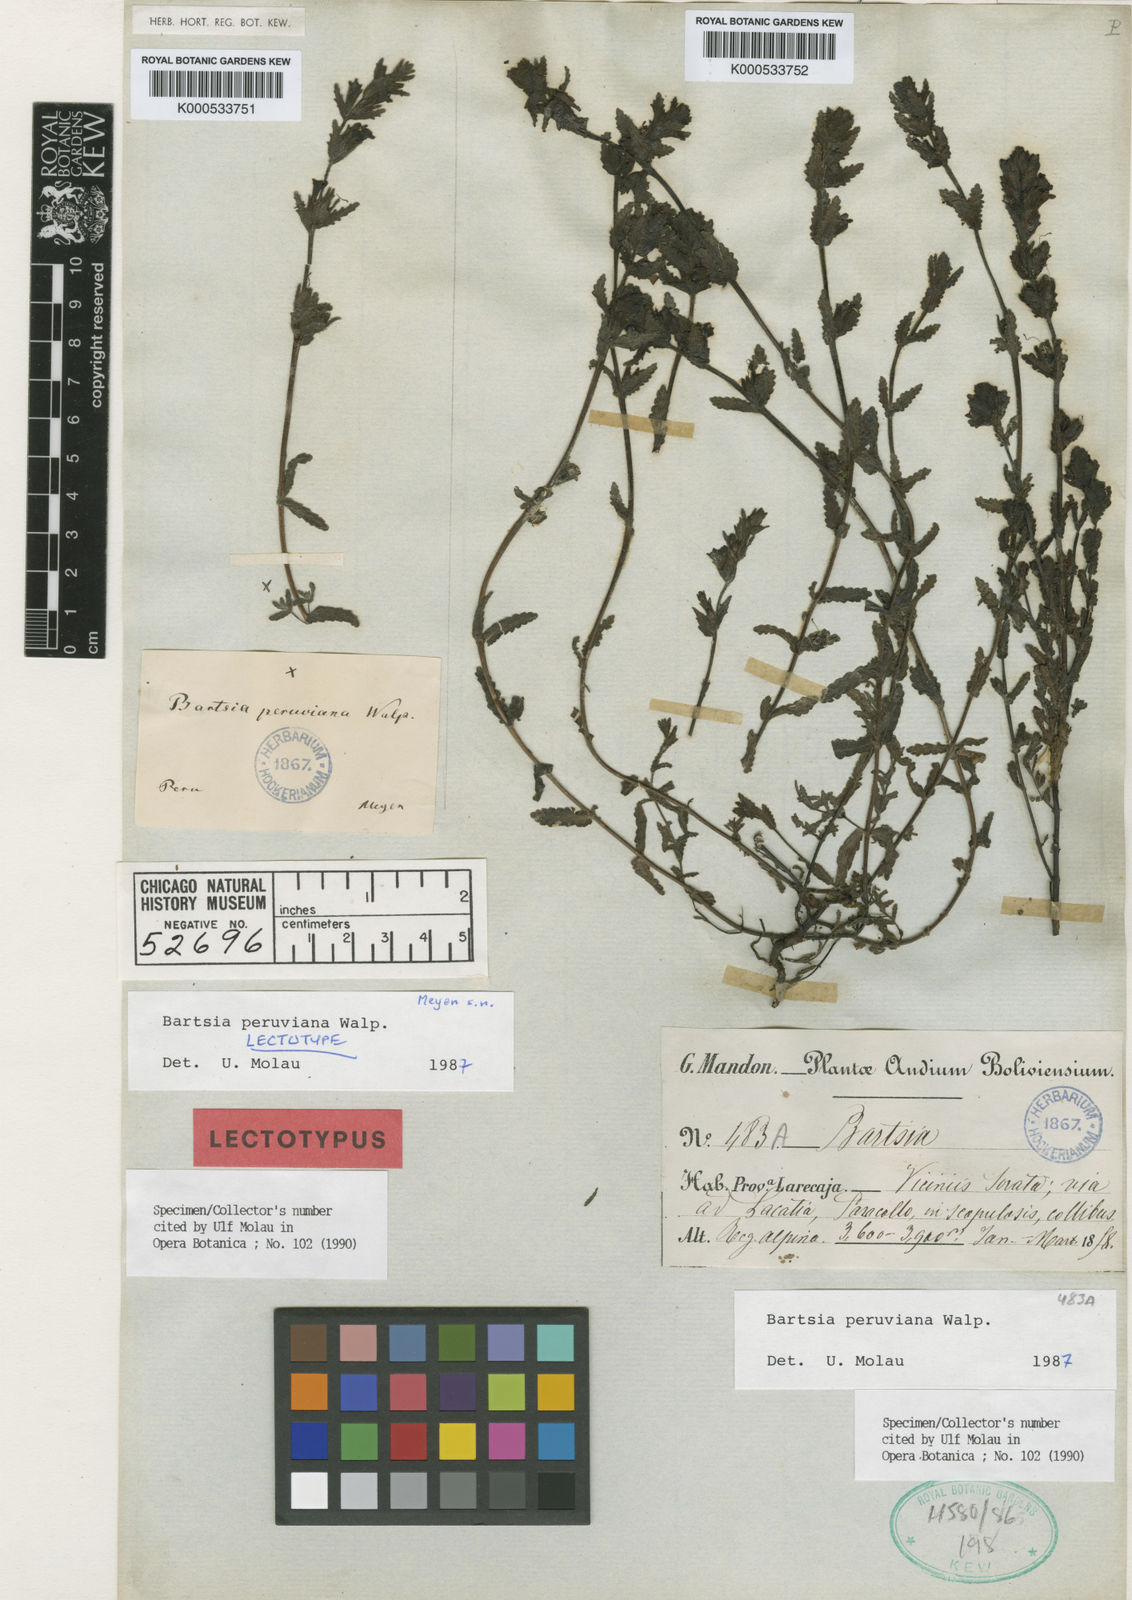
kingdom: Plantae
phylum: Tracheophyta
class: Magnoliopsida
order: Lamiales
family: Orobanchaceae
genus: Neobartsia
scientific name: Neobartsia peruviana
